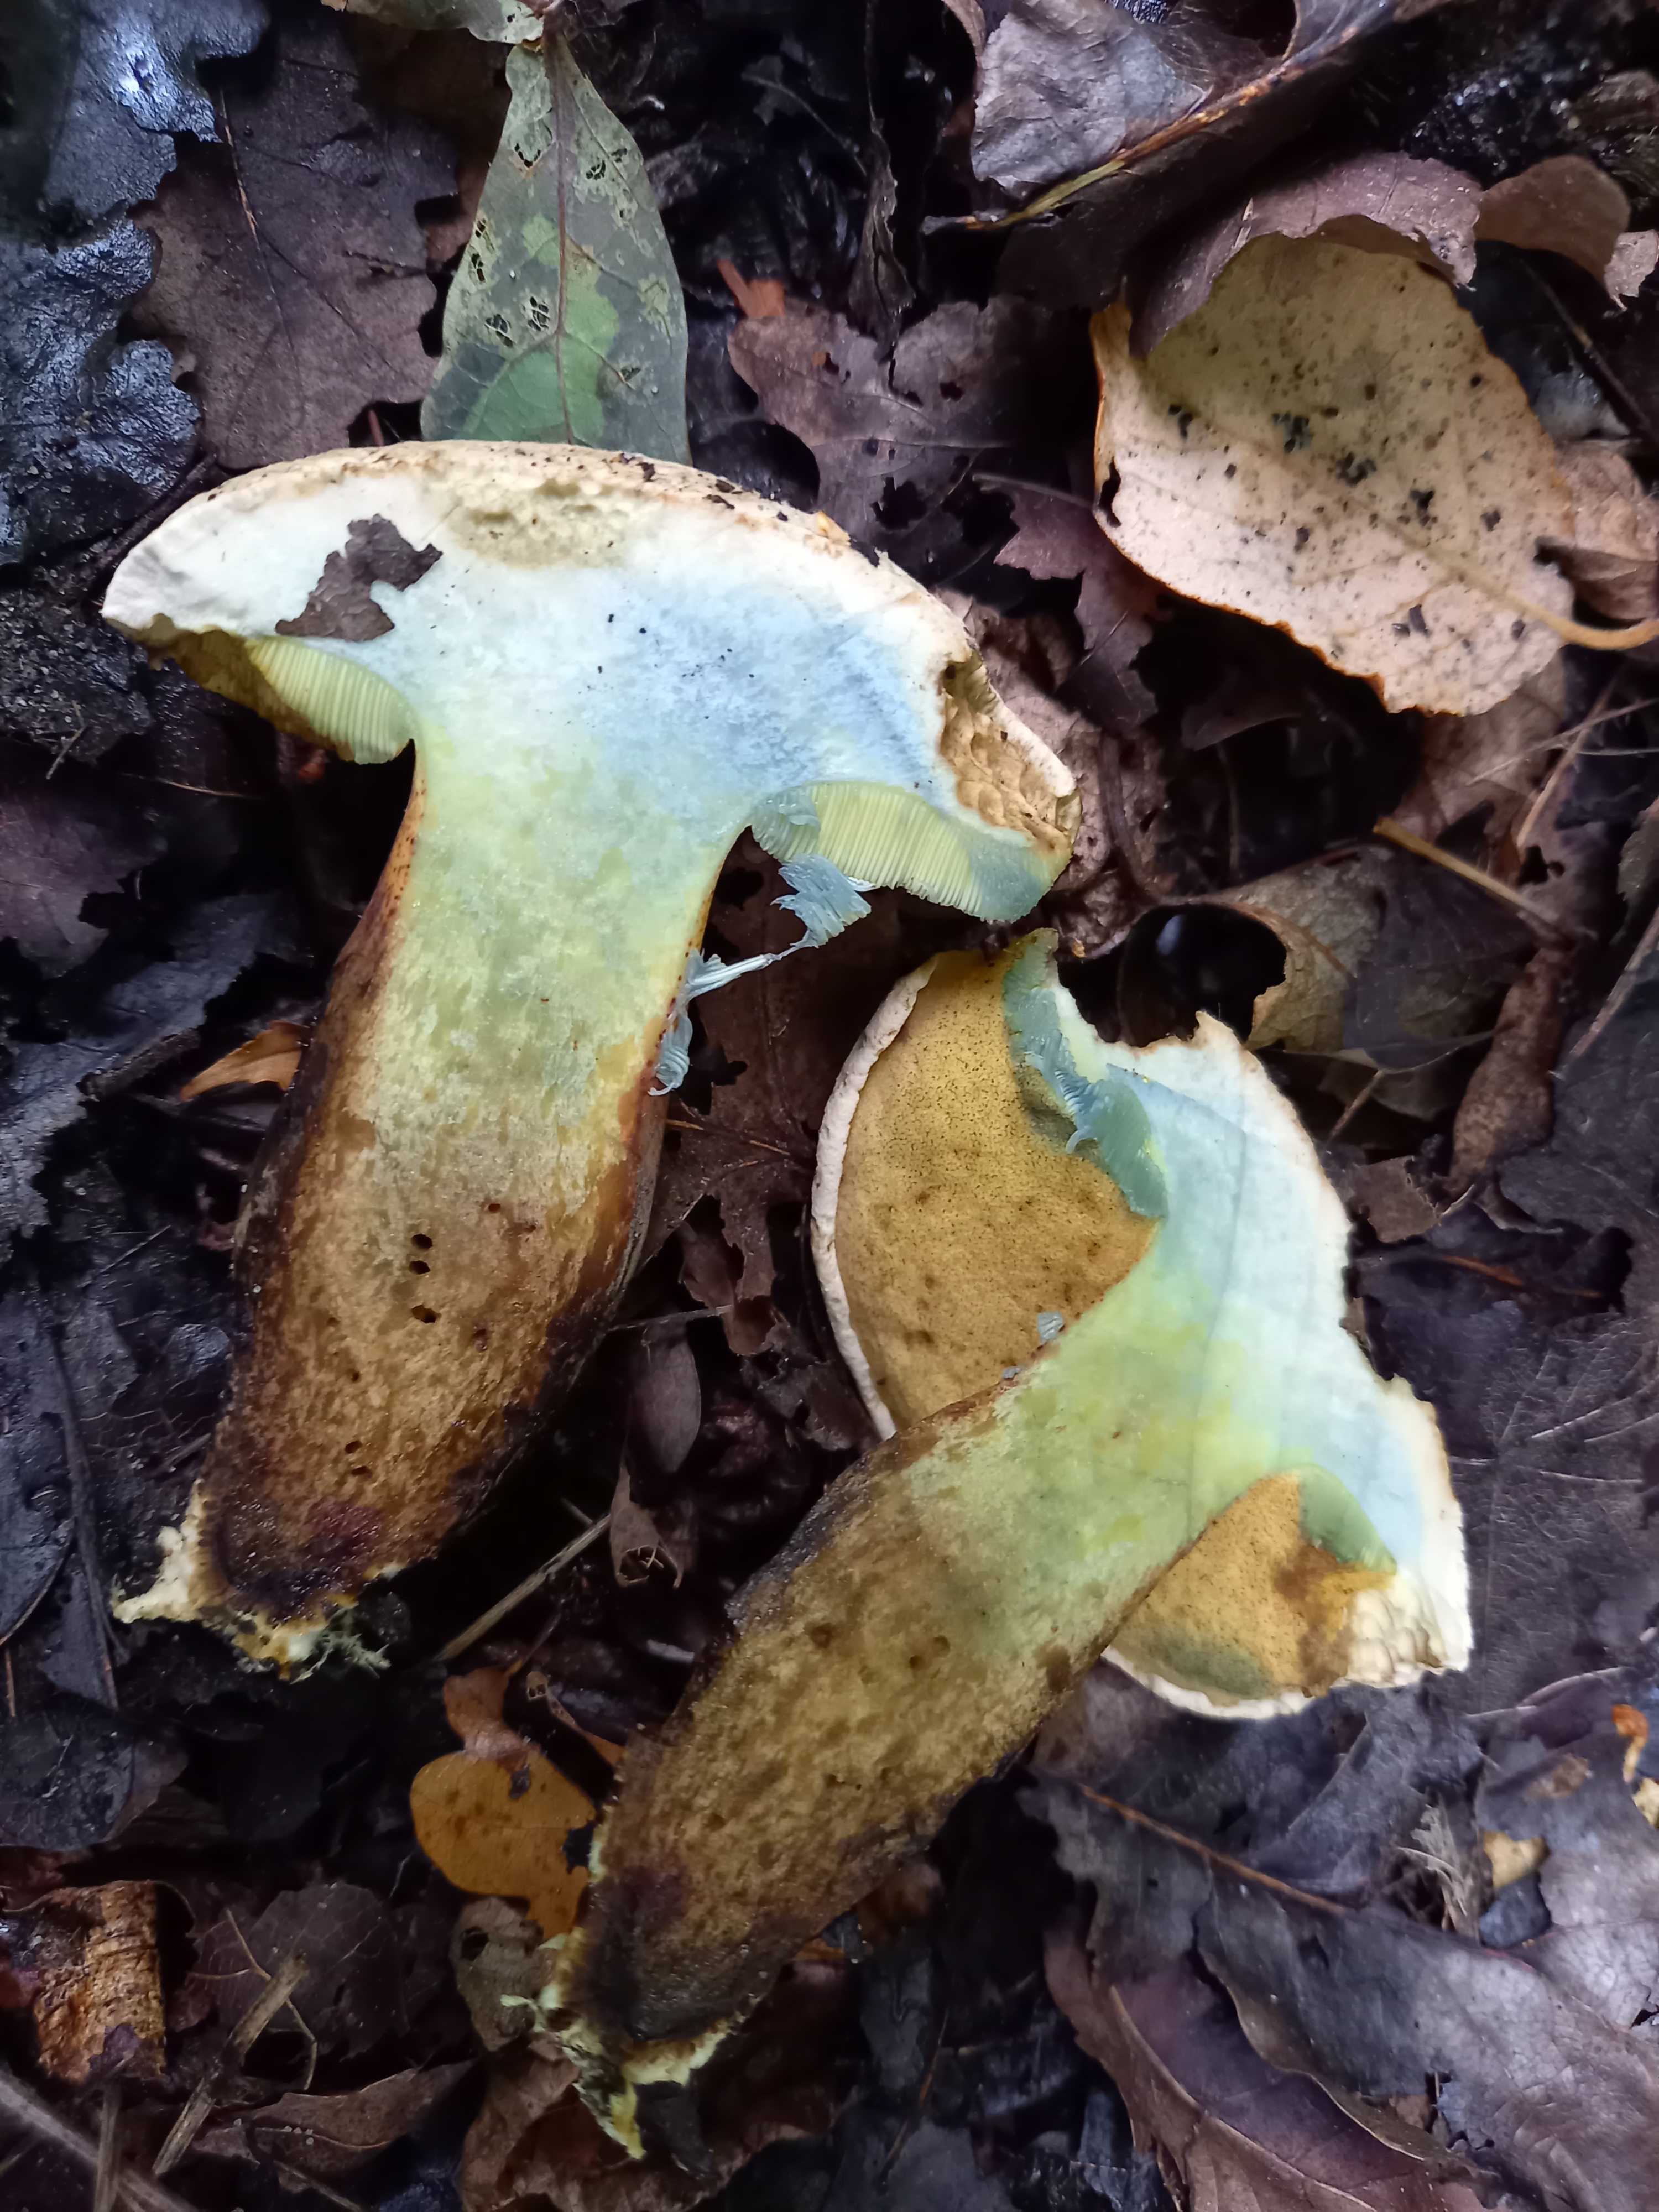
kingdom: Fungi
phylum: Basidiomycota
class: Agaricomycetes
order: Boletales
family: Boletaceae
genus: Caloboletus
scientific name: Caloboletus radicans
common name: rod-rørhat
